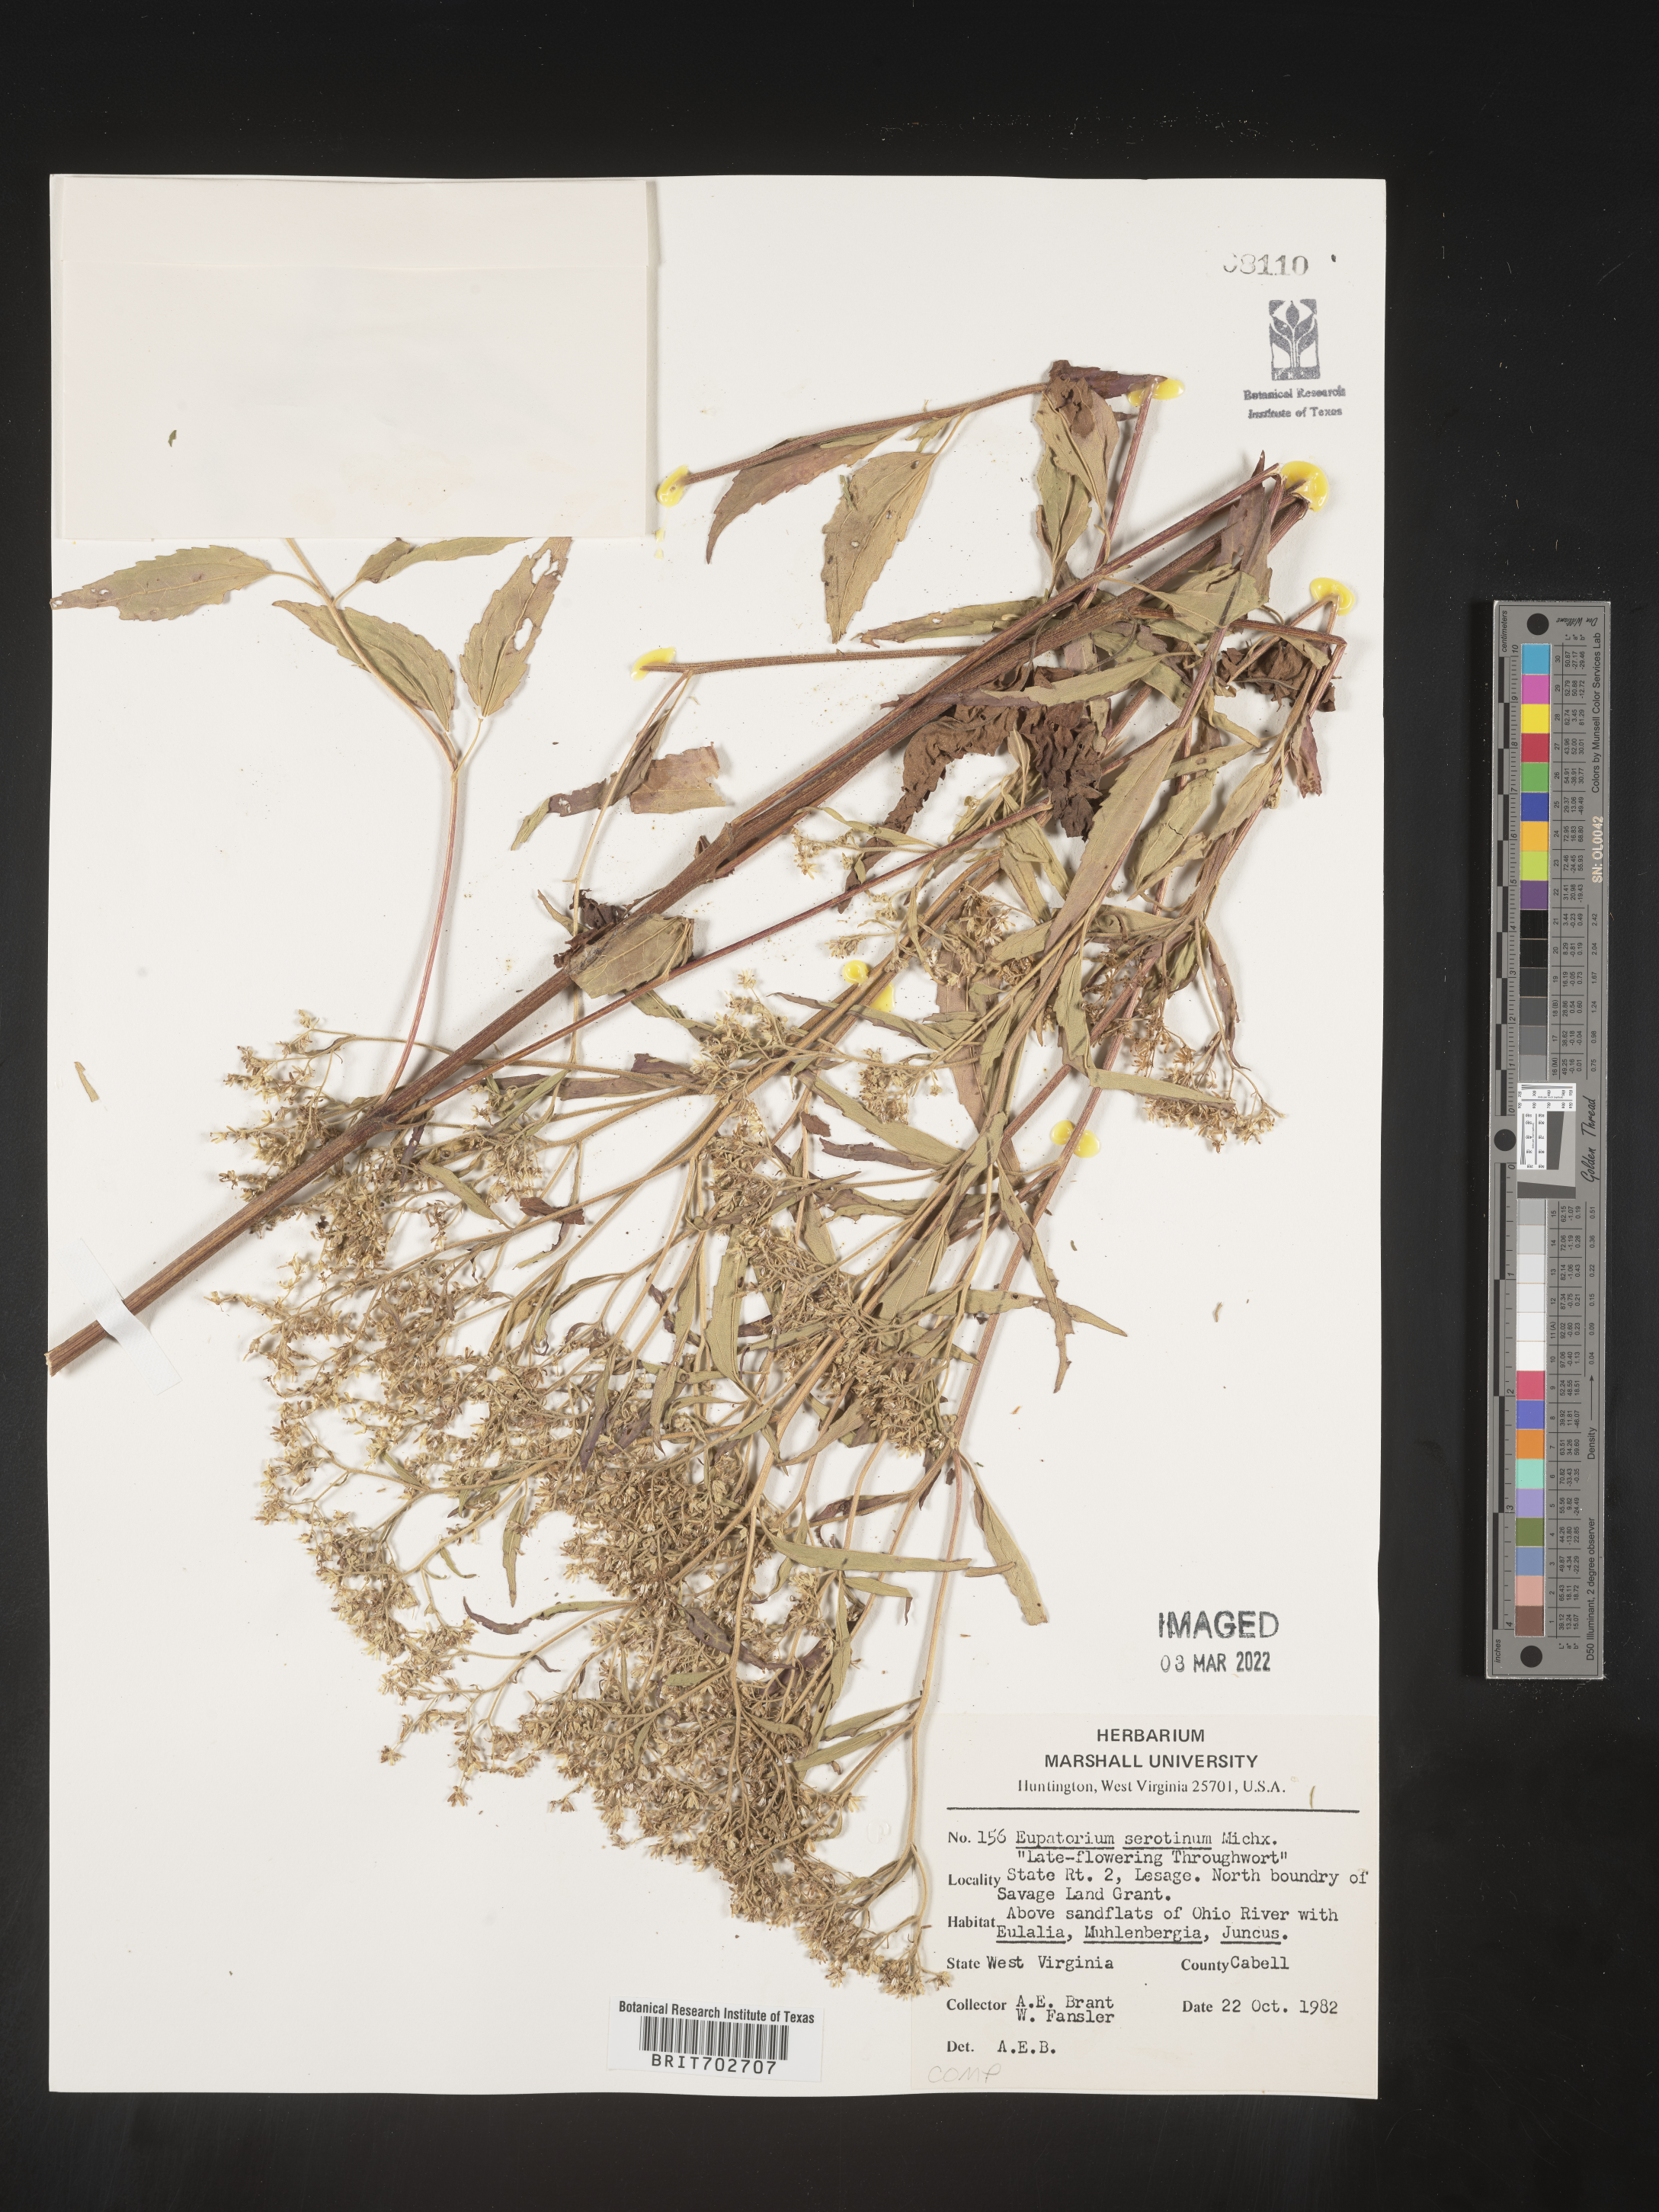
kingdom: Plantae
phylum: Tracheophyta
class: Magnoliopsida
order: Asterales
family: Asteraceae
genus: Eupatorium
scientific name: Eupatorium serotinum
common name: Late boneset
